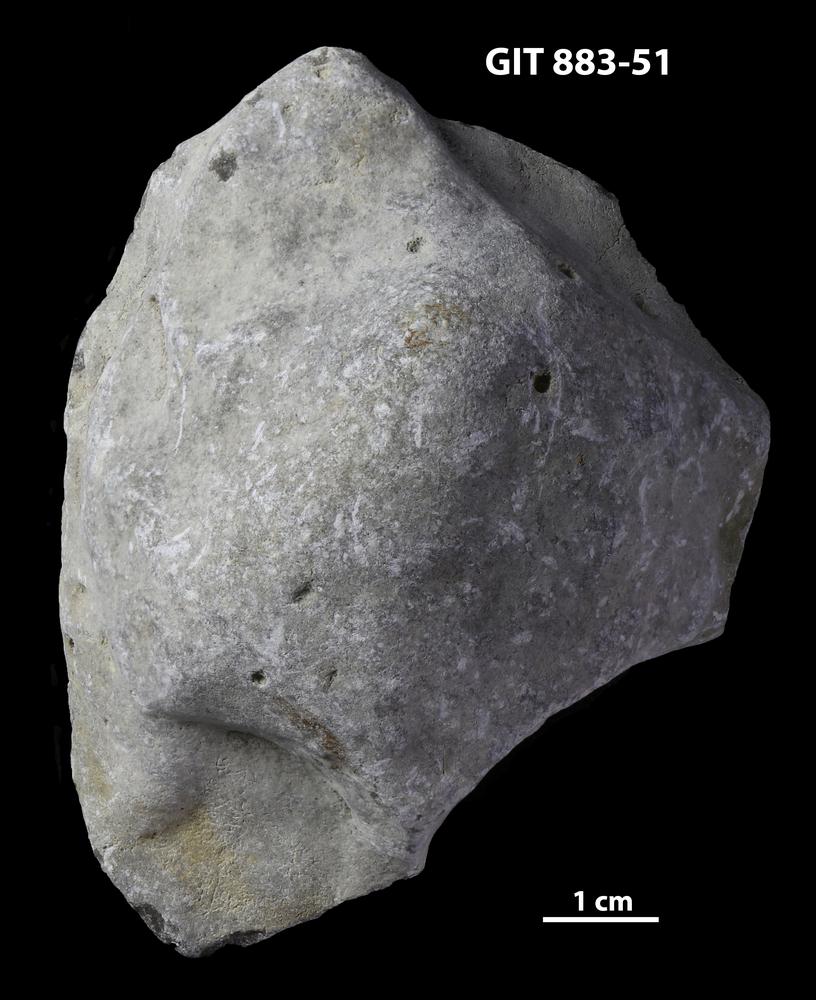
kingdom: Animalia
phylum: Porifera
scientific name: Porifera
